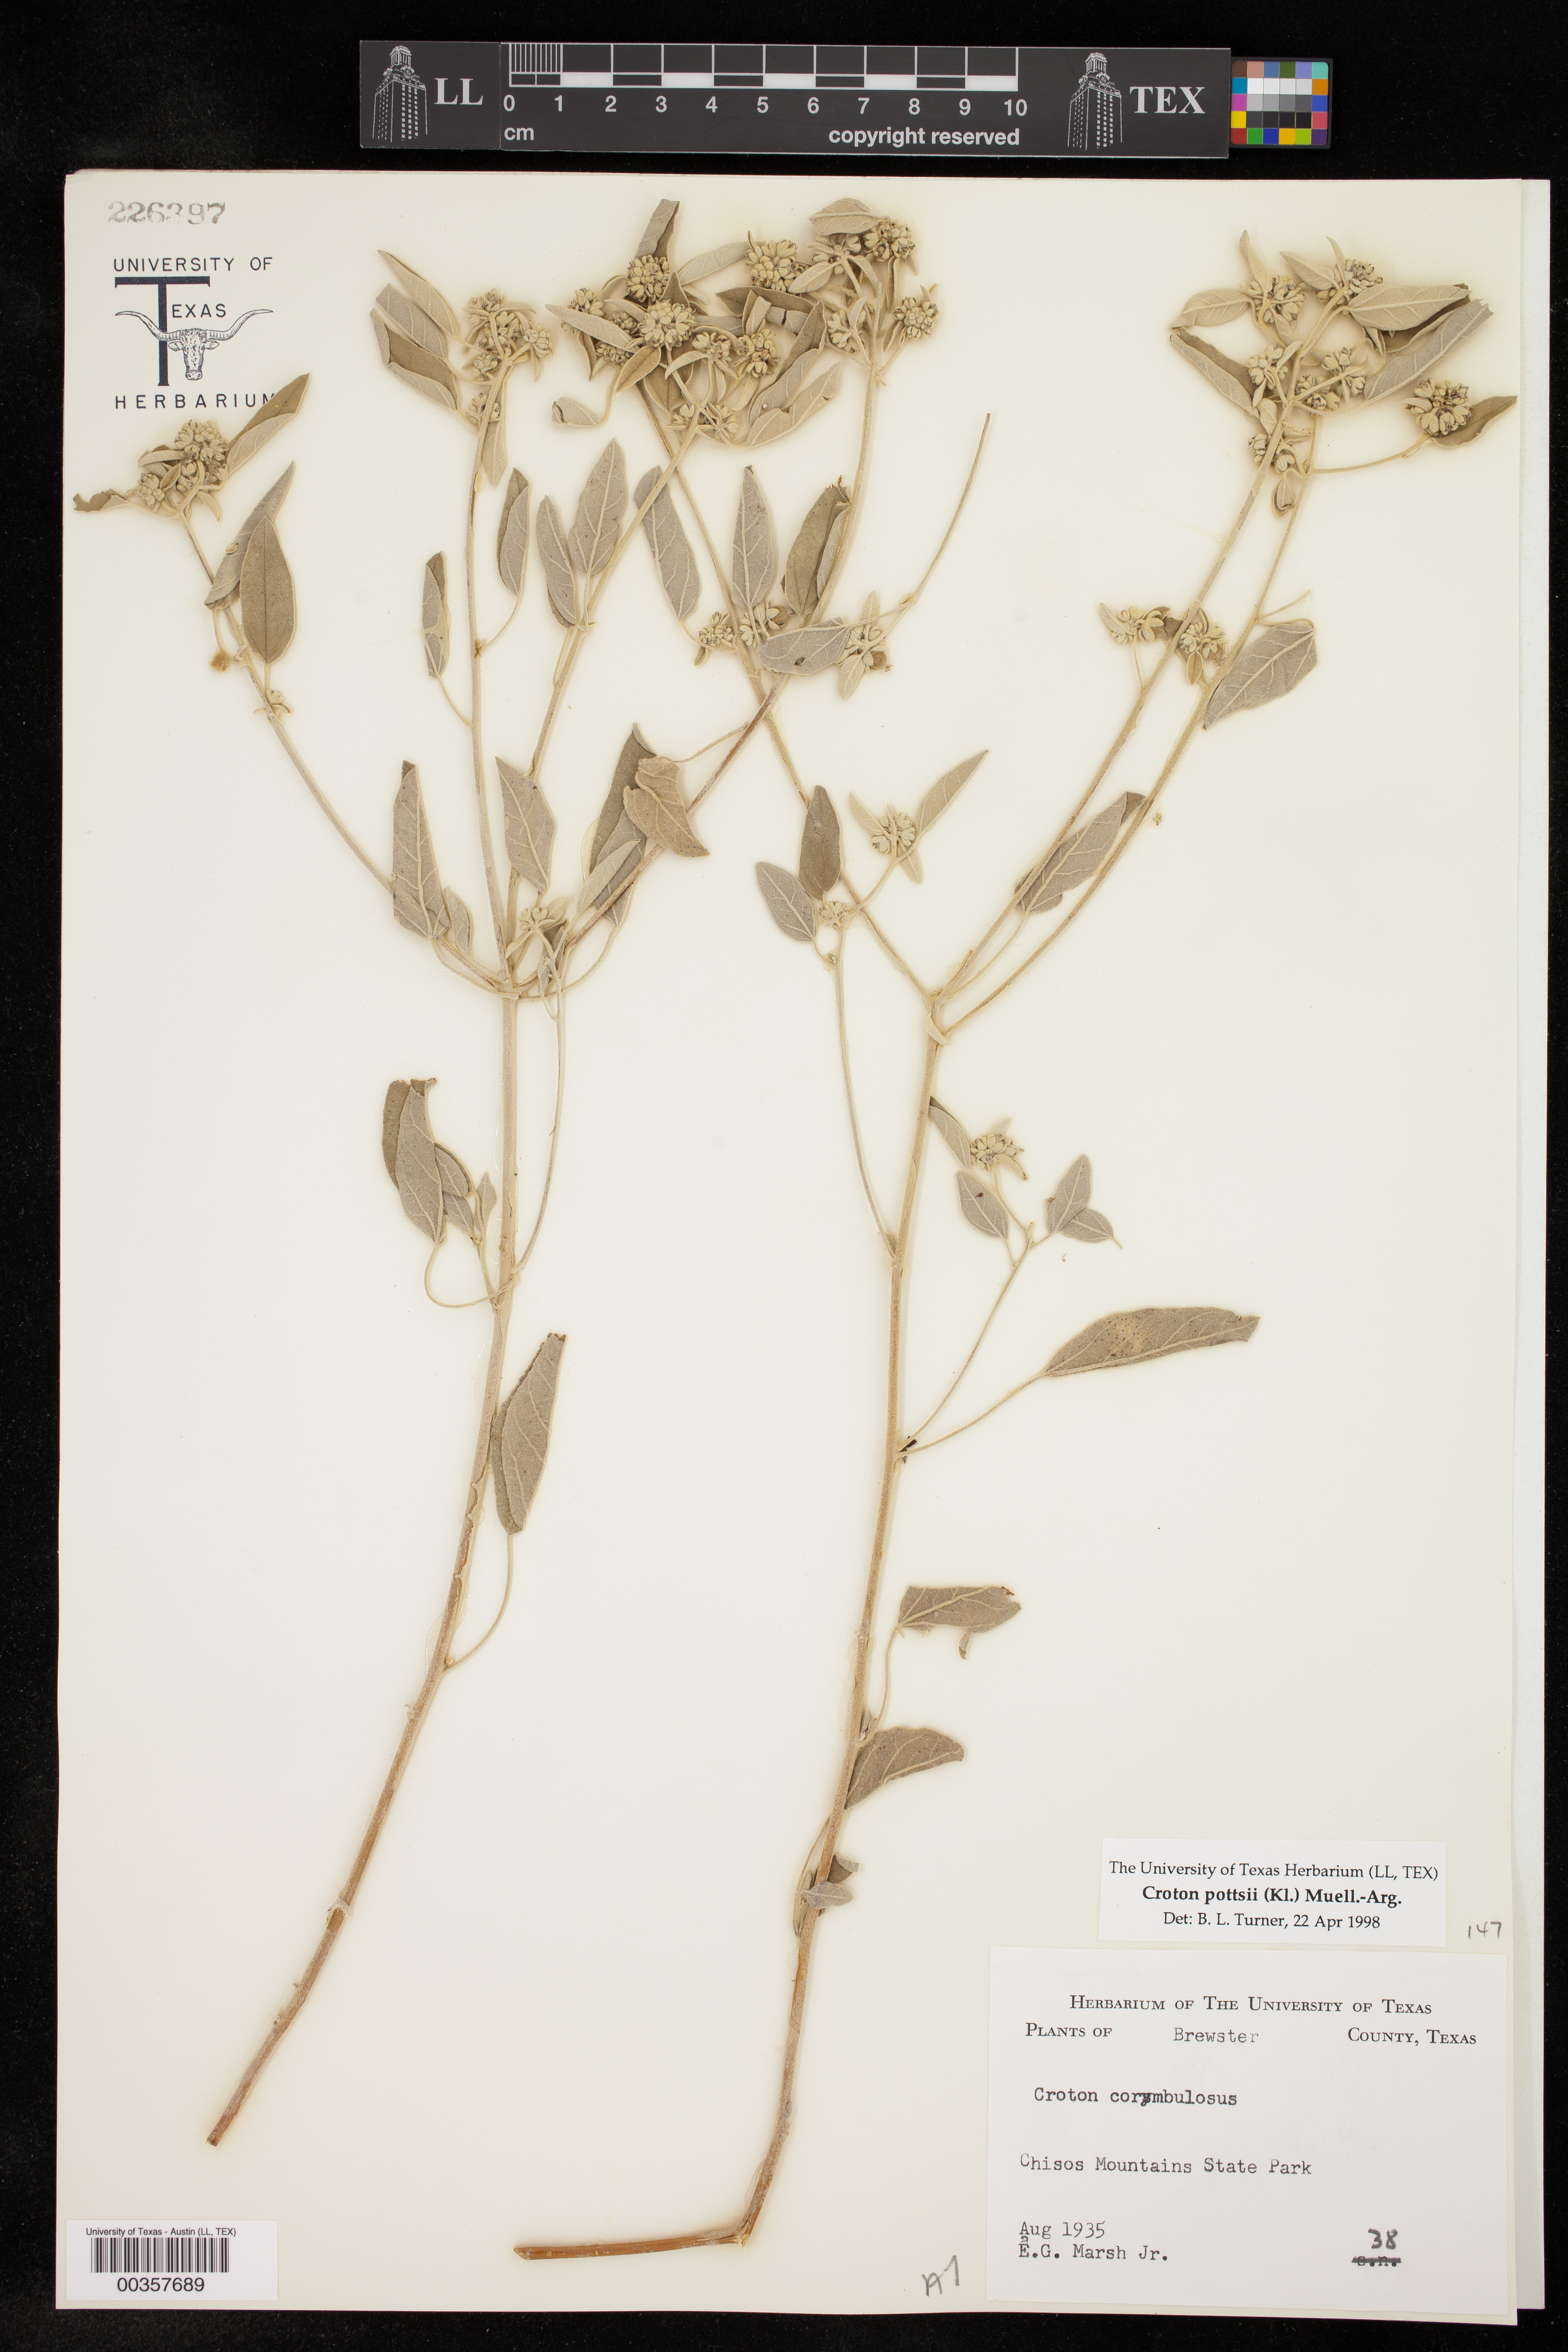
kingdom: Plantae
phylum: Tracheophyta
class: Magnoliopsida
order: Malpighiales
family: Euphorbiaceae
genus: Croton
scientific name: Croton pottsii
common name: Leatherweed
